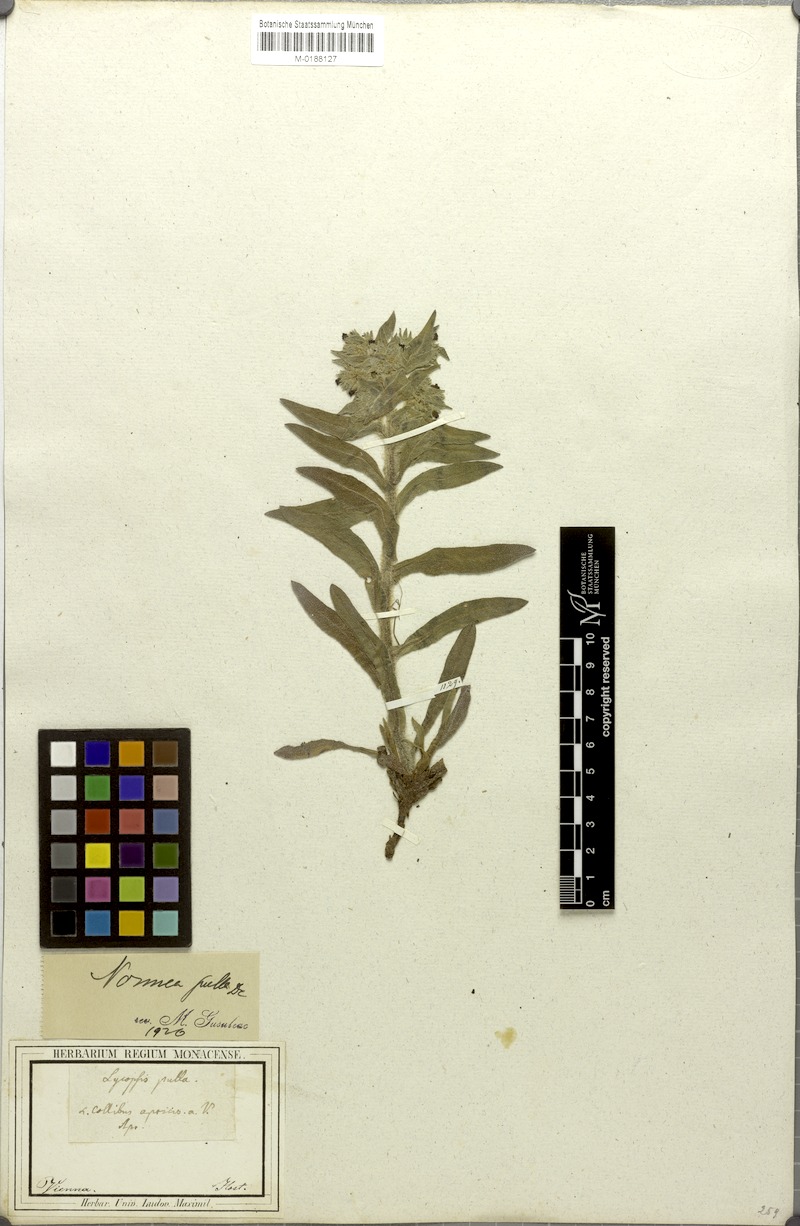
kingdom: Plantae
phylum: Tracheophyta
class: Magnoliopsida
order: Boraginales
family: Boraginaceae
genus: Nonea
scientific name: Nonea pulla
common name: Brown nonea
